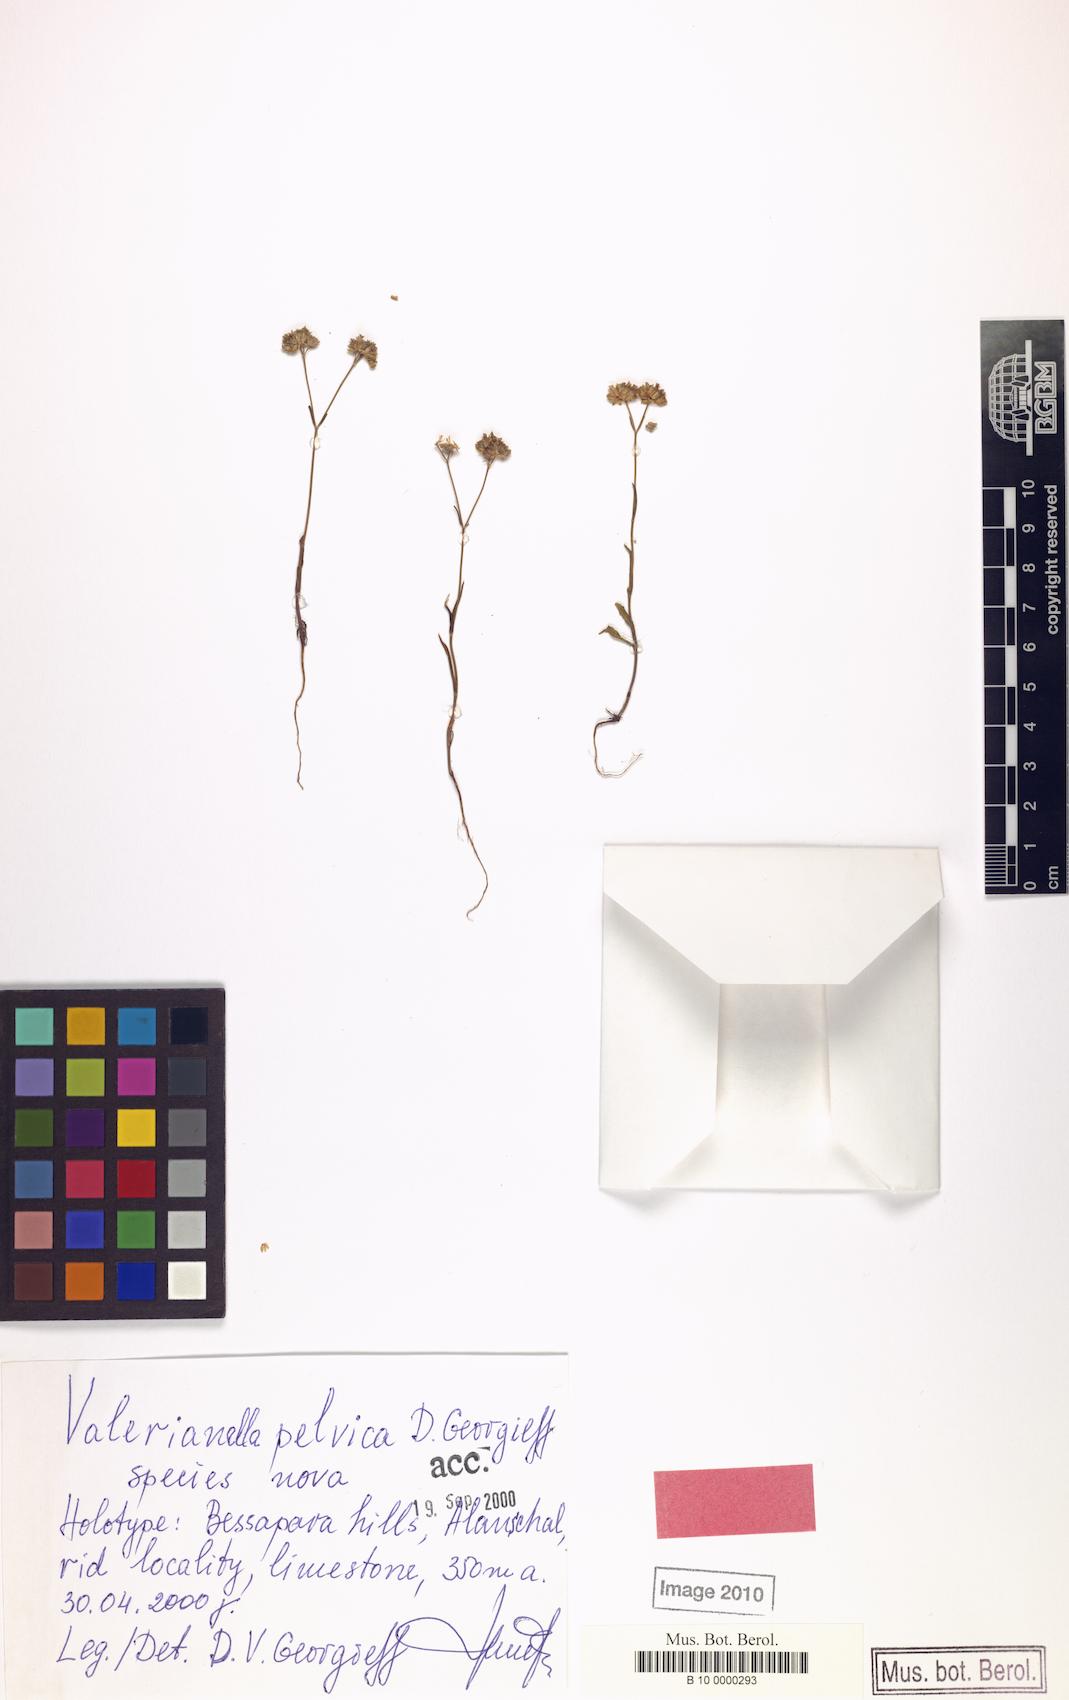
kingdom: Plantae
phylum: Tracheophyta
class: Magnoliopsida
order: Dipsacales
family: Caprifoliaceae
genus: Valerianella
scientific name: Valerianella
